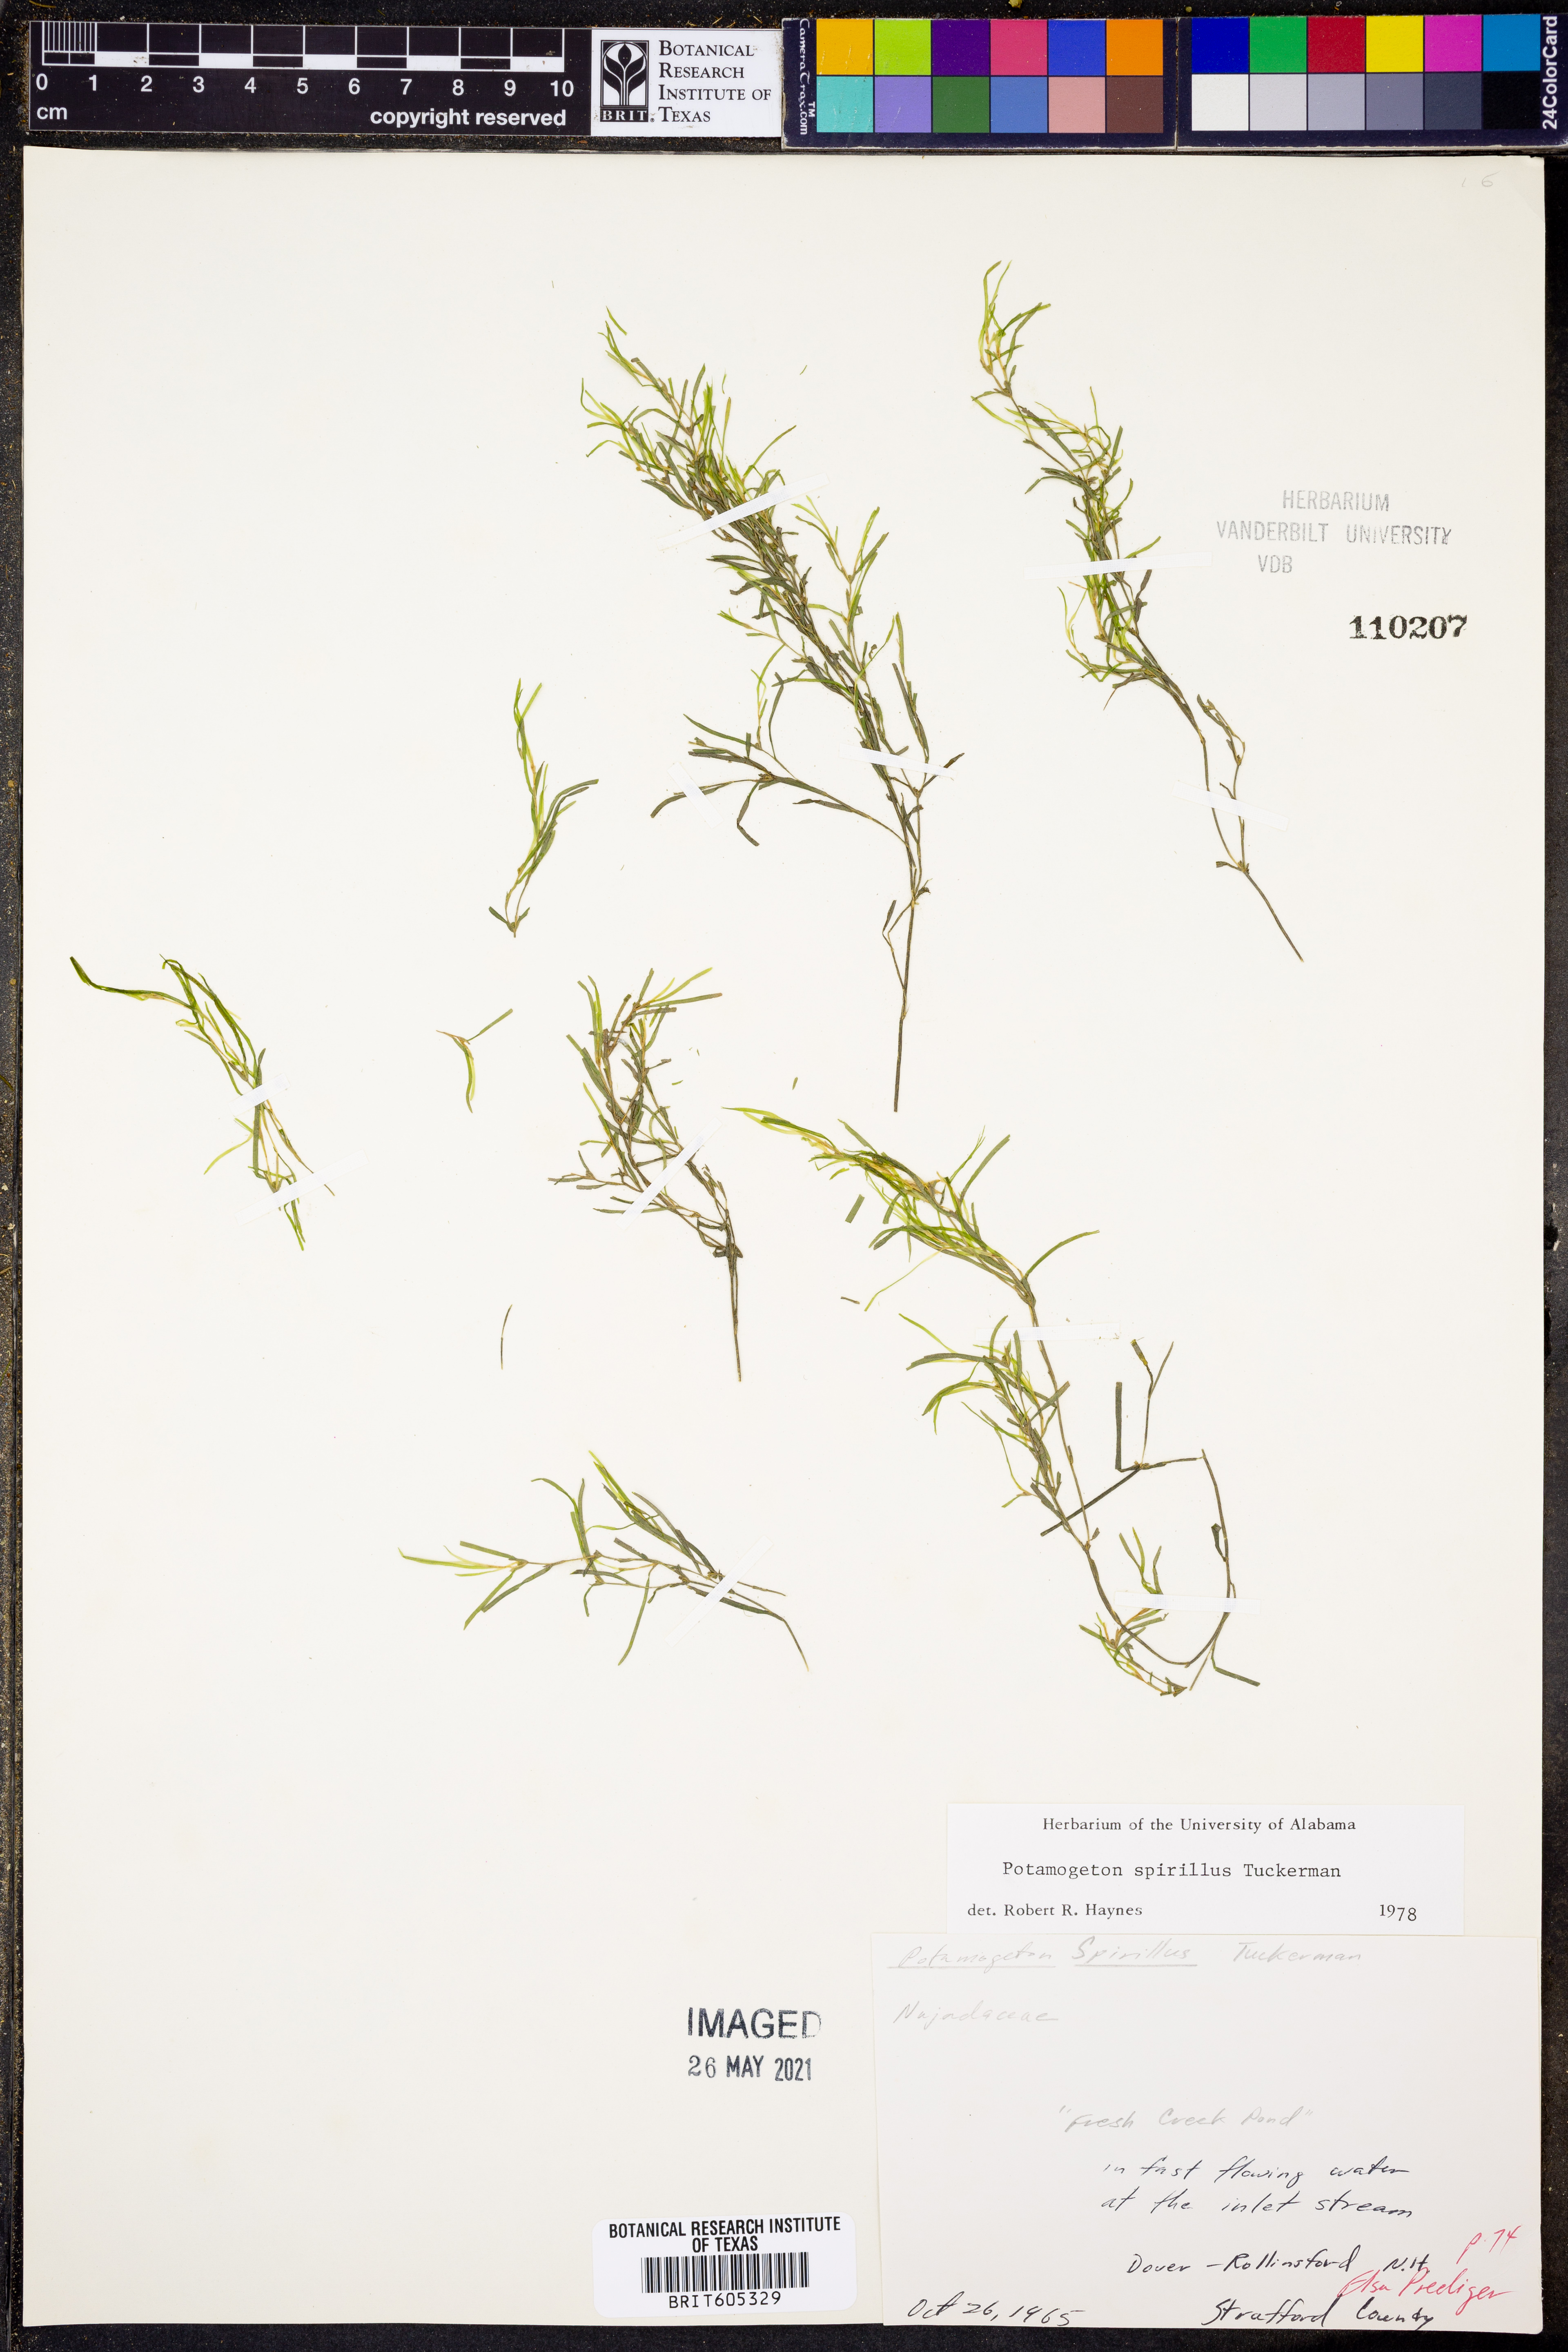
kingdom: Plantae
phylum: Tracheophyta
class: Liliopsida
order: Alismatales
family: Potamogetonaceae
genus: Potamogeton
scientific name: Potamogeton spirillus
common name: Northern snail-seed pondweed
